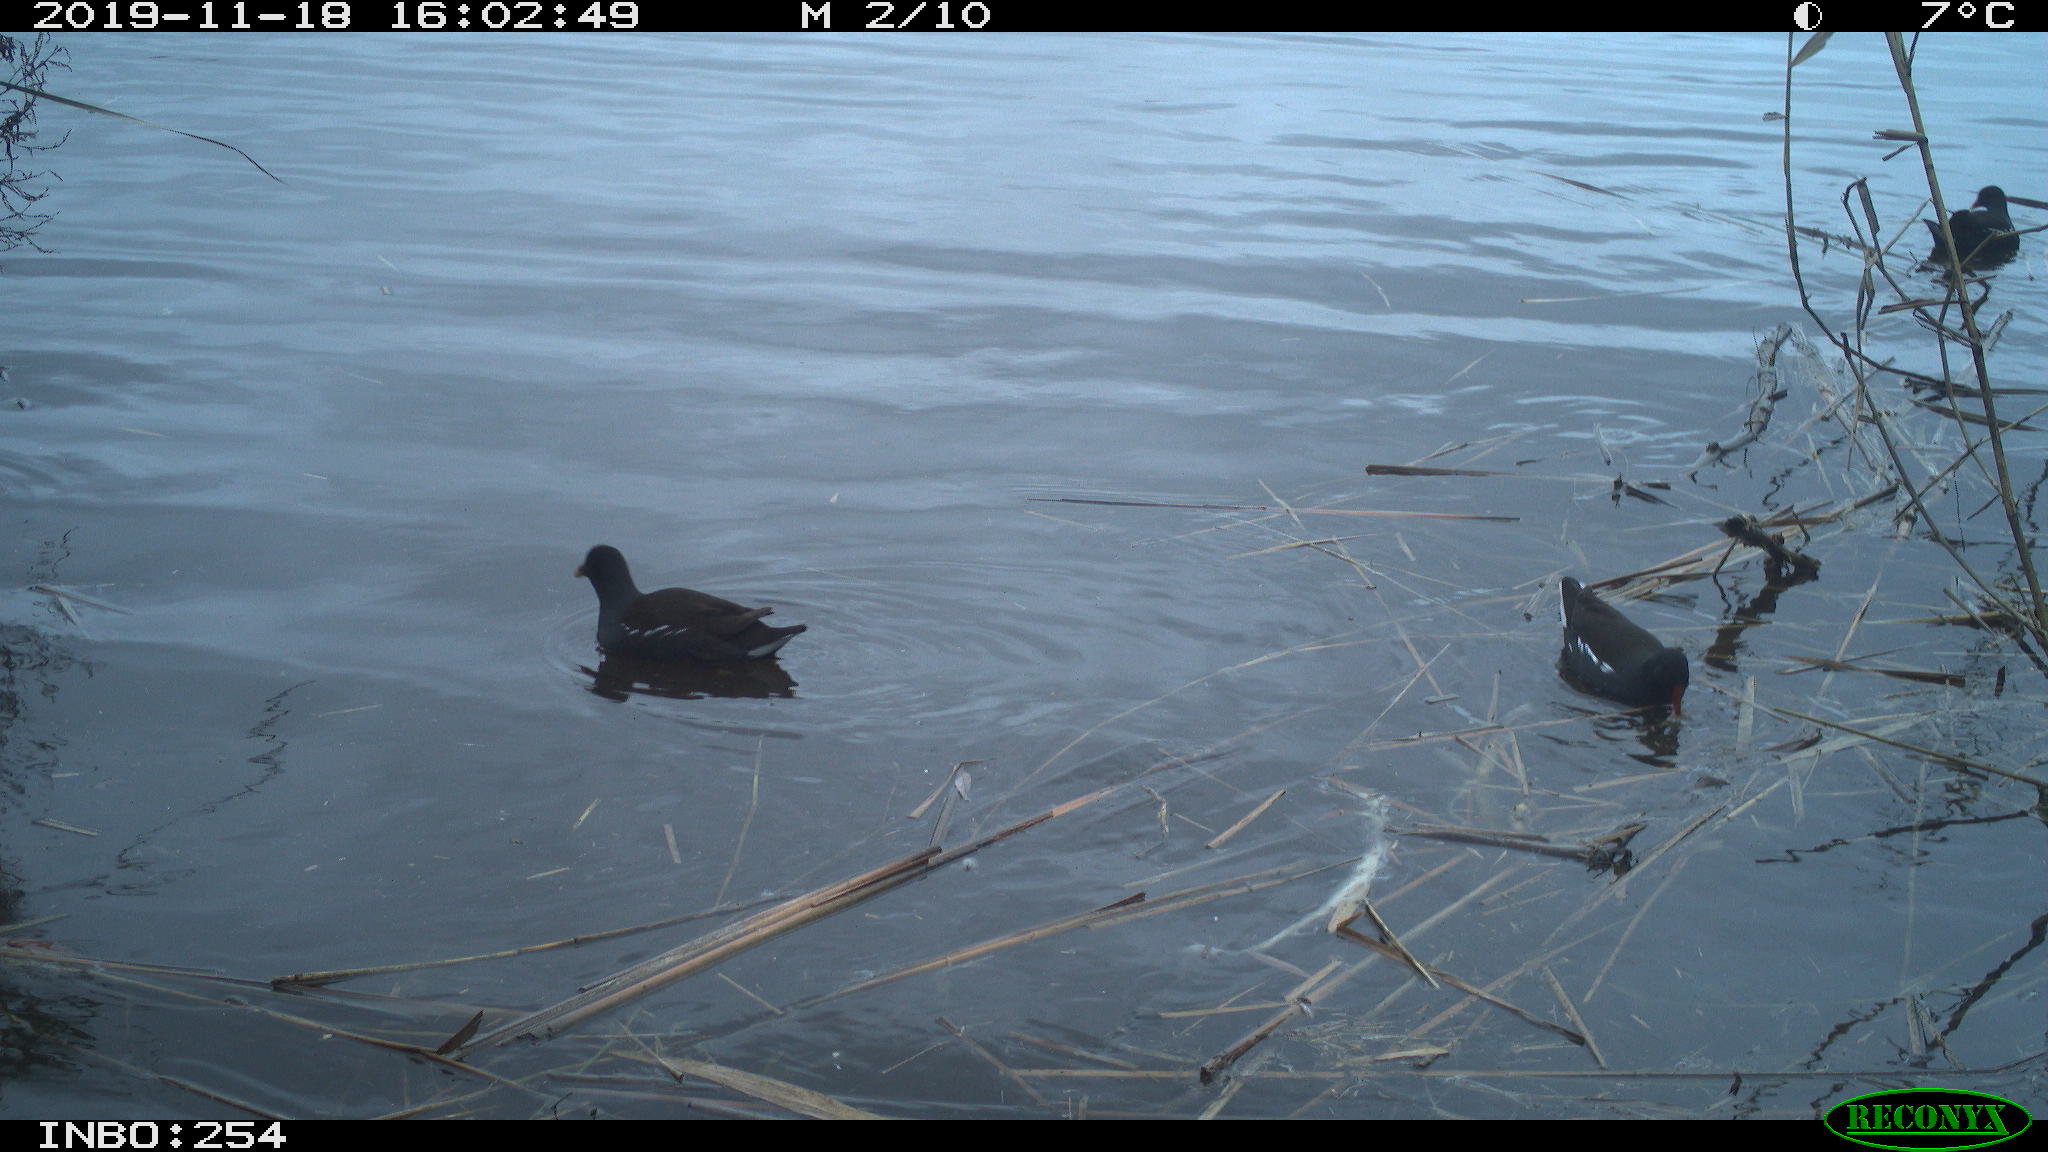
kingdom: Animalia
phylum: Chordata
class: Aves
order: Gruiformes
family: Rallidae
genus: Gallinula
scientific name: Gallinula chloropus
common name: Common moorhen
